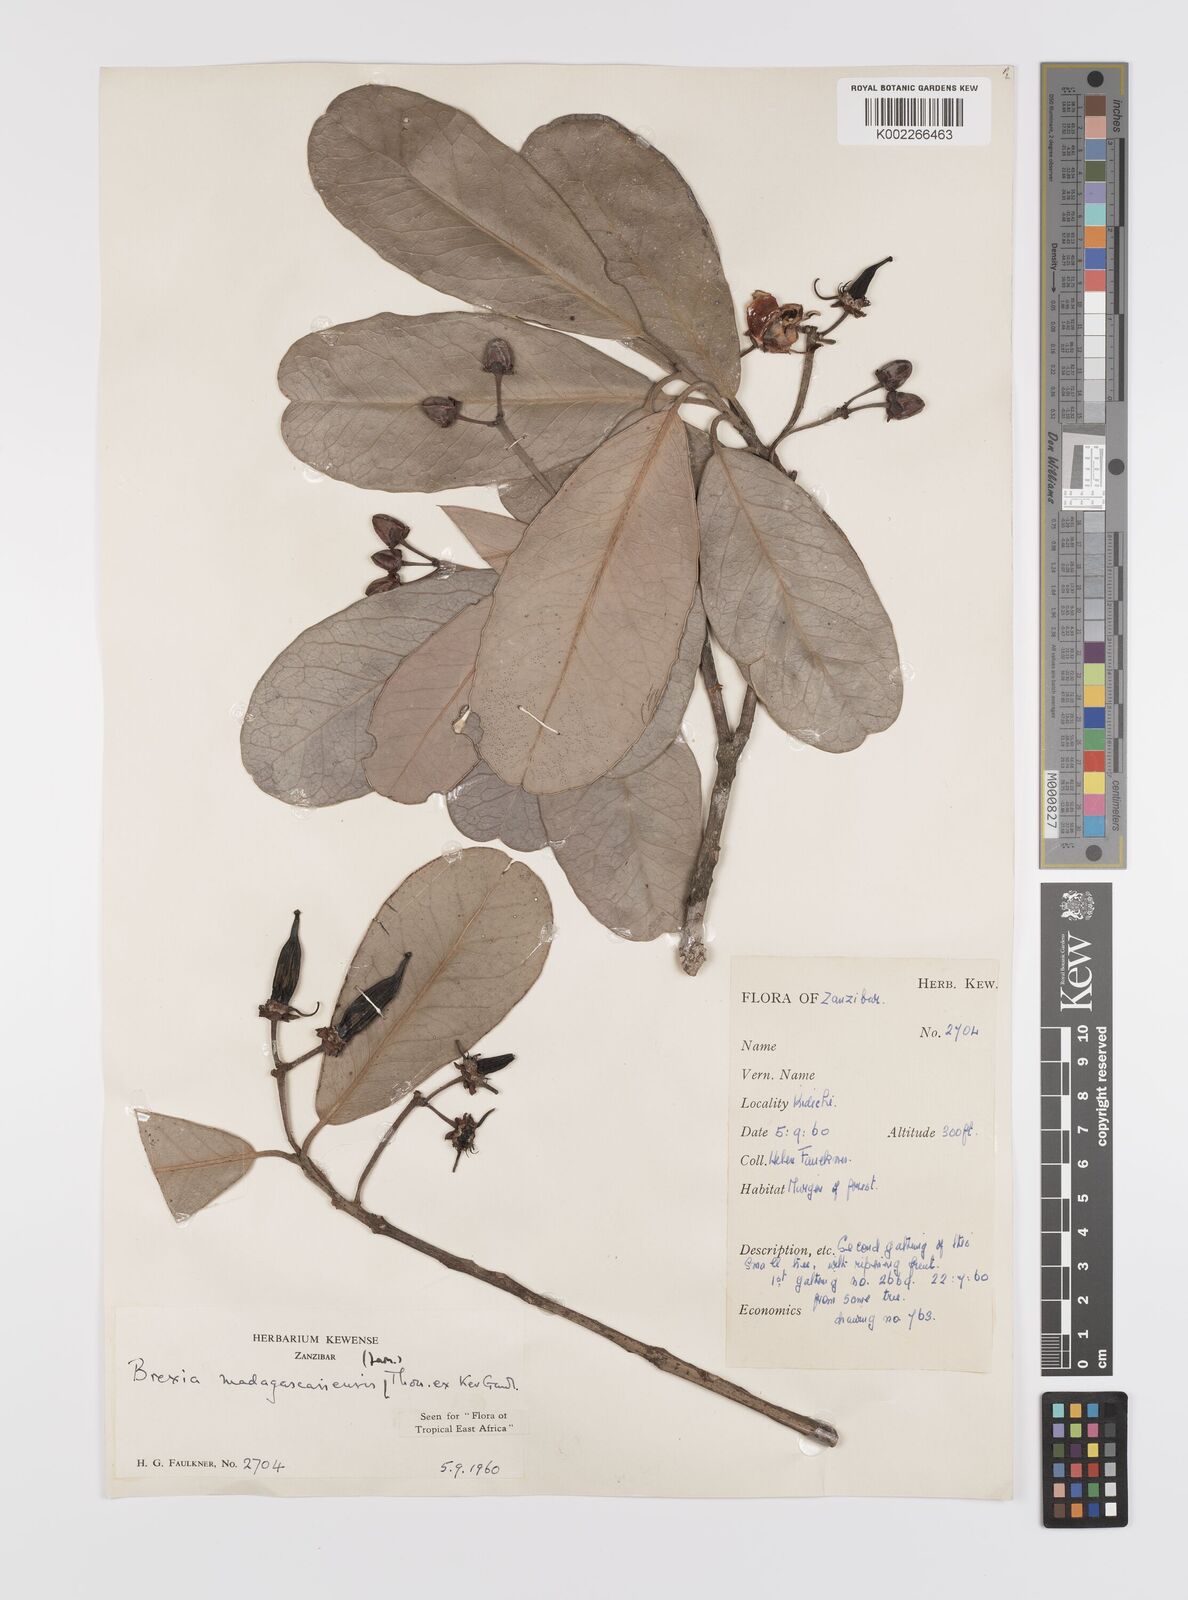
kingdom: Plantae
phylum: Tracheophyta
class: Magnoliopsida
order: Celastrales
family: Celastraceae
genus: Brexia
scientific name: Brexia madagascariensis
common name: Brexia
